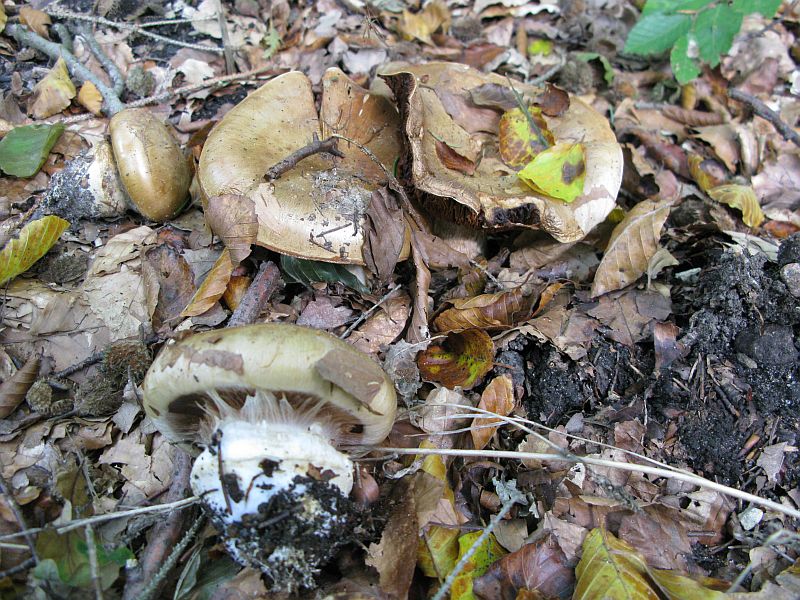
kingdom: Fungi
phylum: Basidiomycota
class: Agaricomycetes
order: Agaricales
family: Cortinariaceae
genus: Cortinarius
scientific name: Cortinarius anserinus
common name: bøge-slørhat
